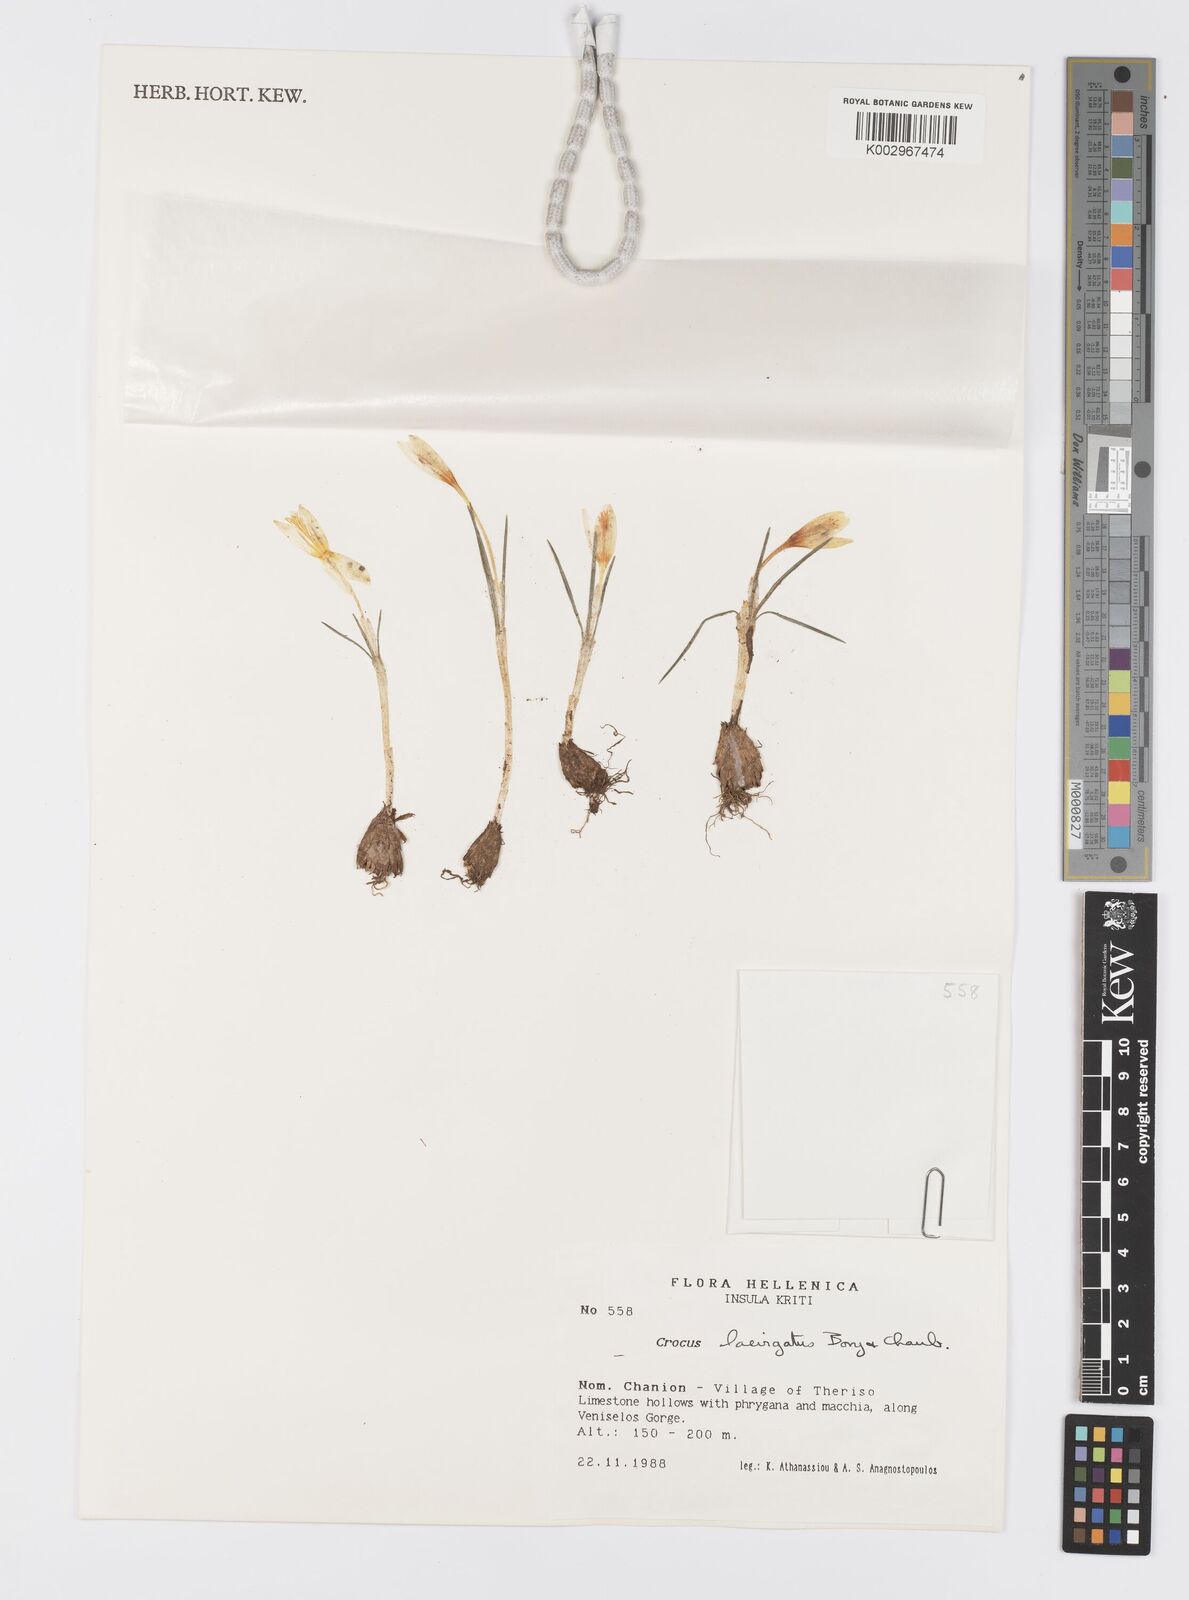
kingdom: Plantae
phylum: Tracheophyta
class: Liliopsida
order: Asparagales
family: Iridaceae
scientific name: Iridaceae
